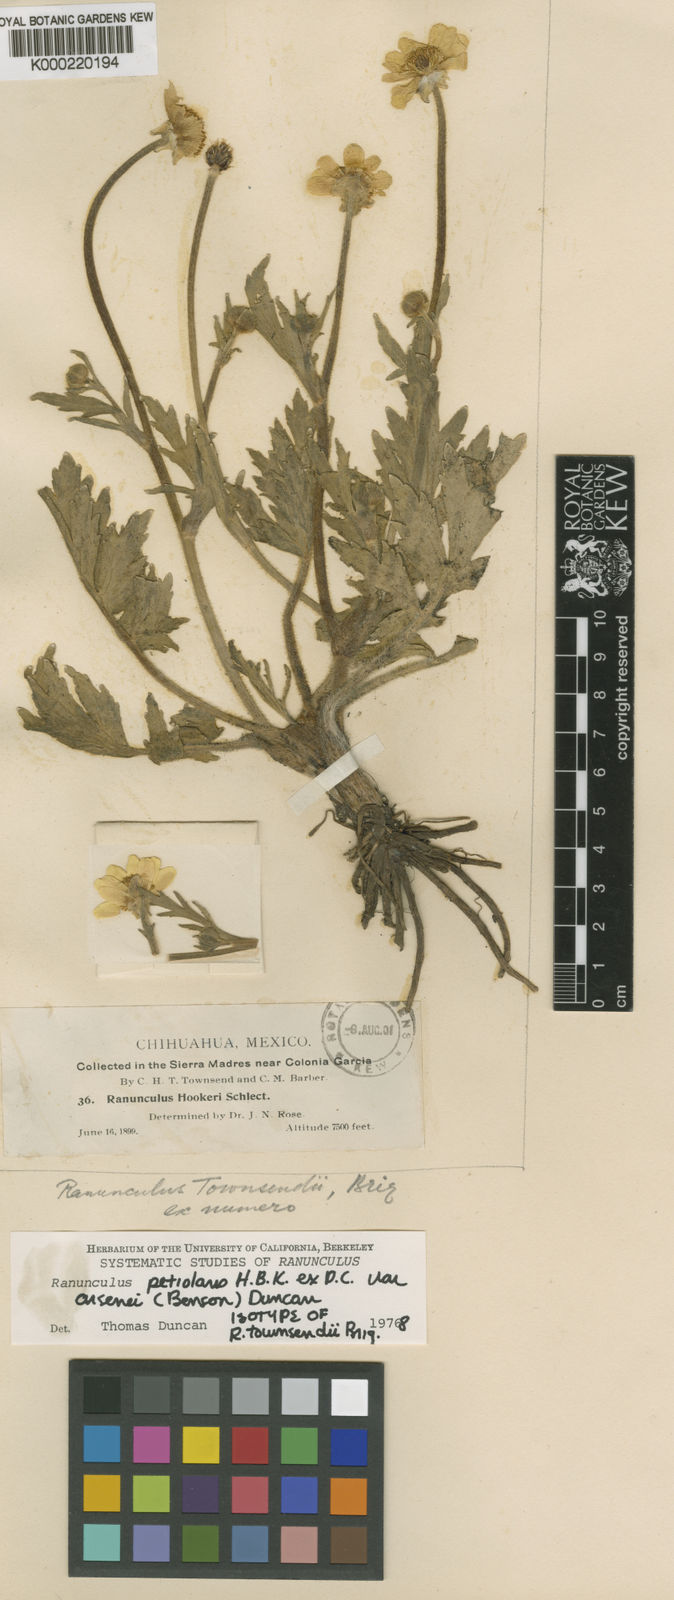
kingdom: Plantae
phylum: Tracheophyta
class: Magnoliopsida
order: Ranunculales
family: Ranunculaceae
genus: Ranunculus
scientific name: Ranunculus petiolaris
